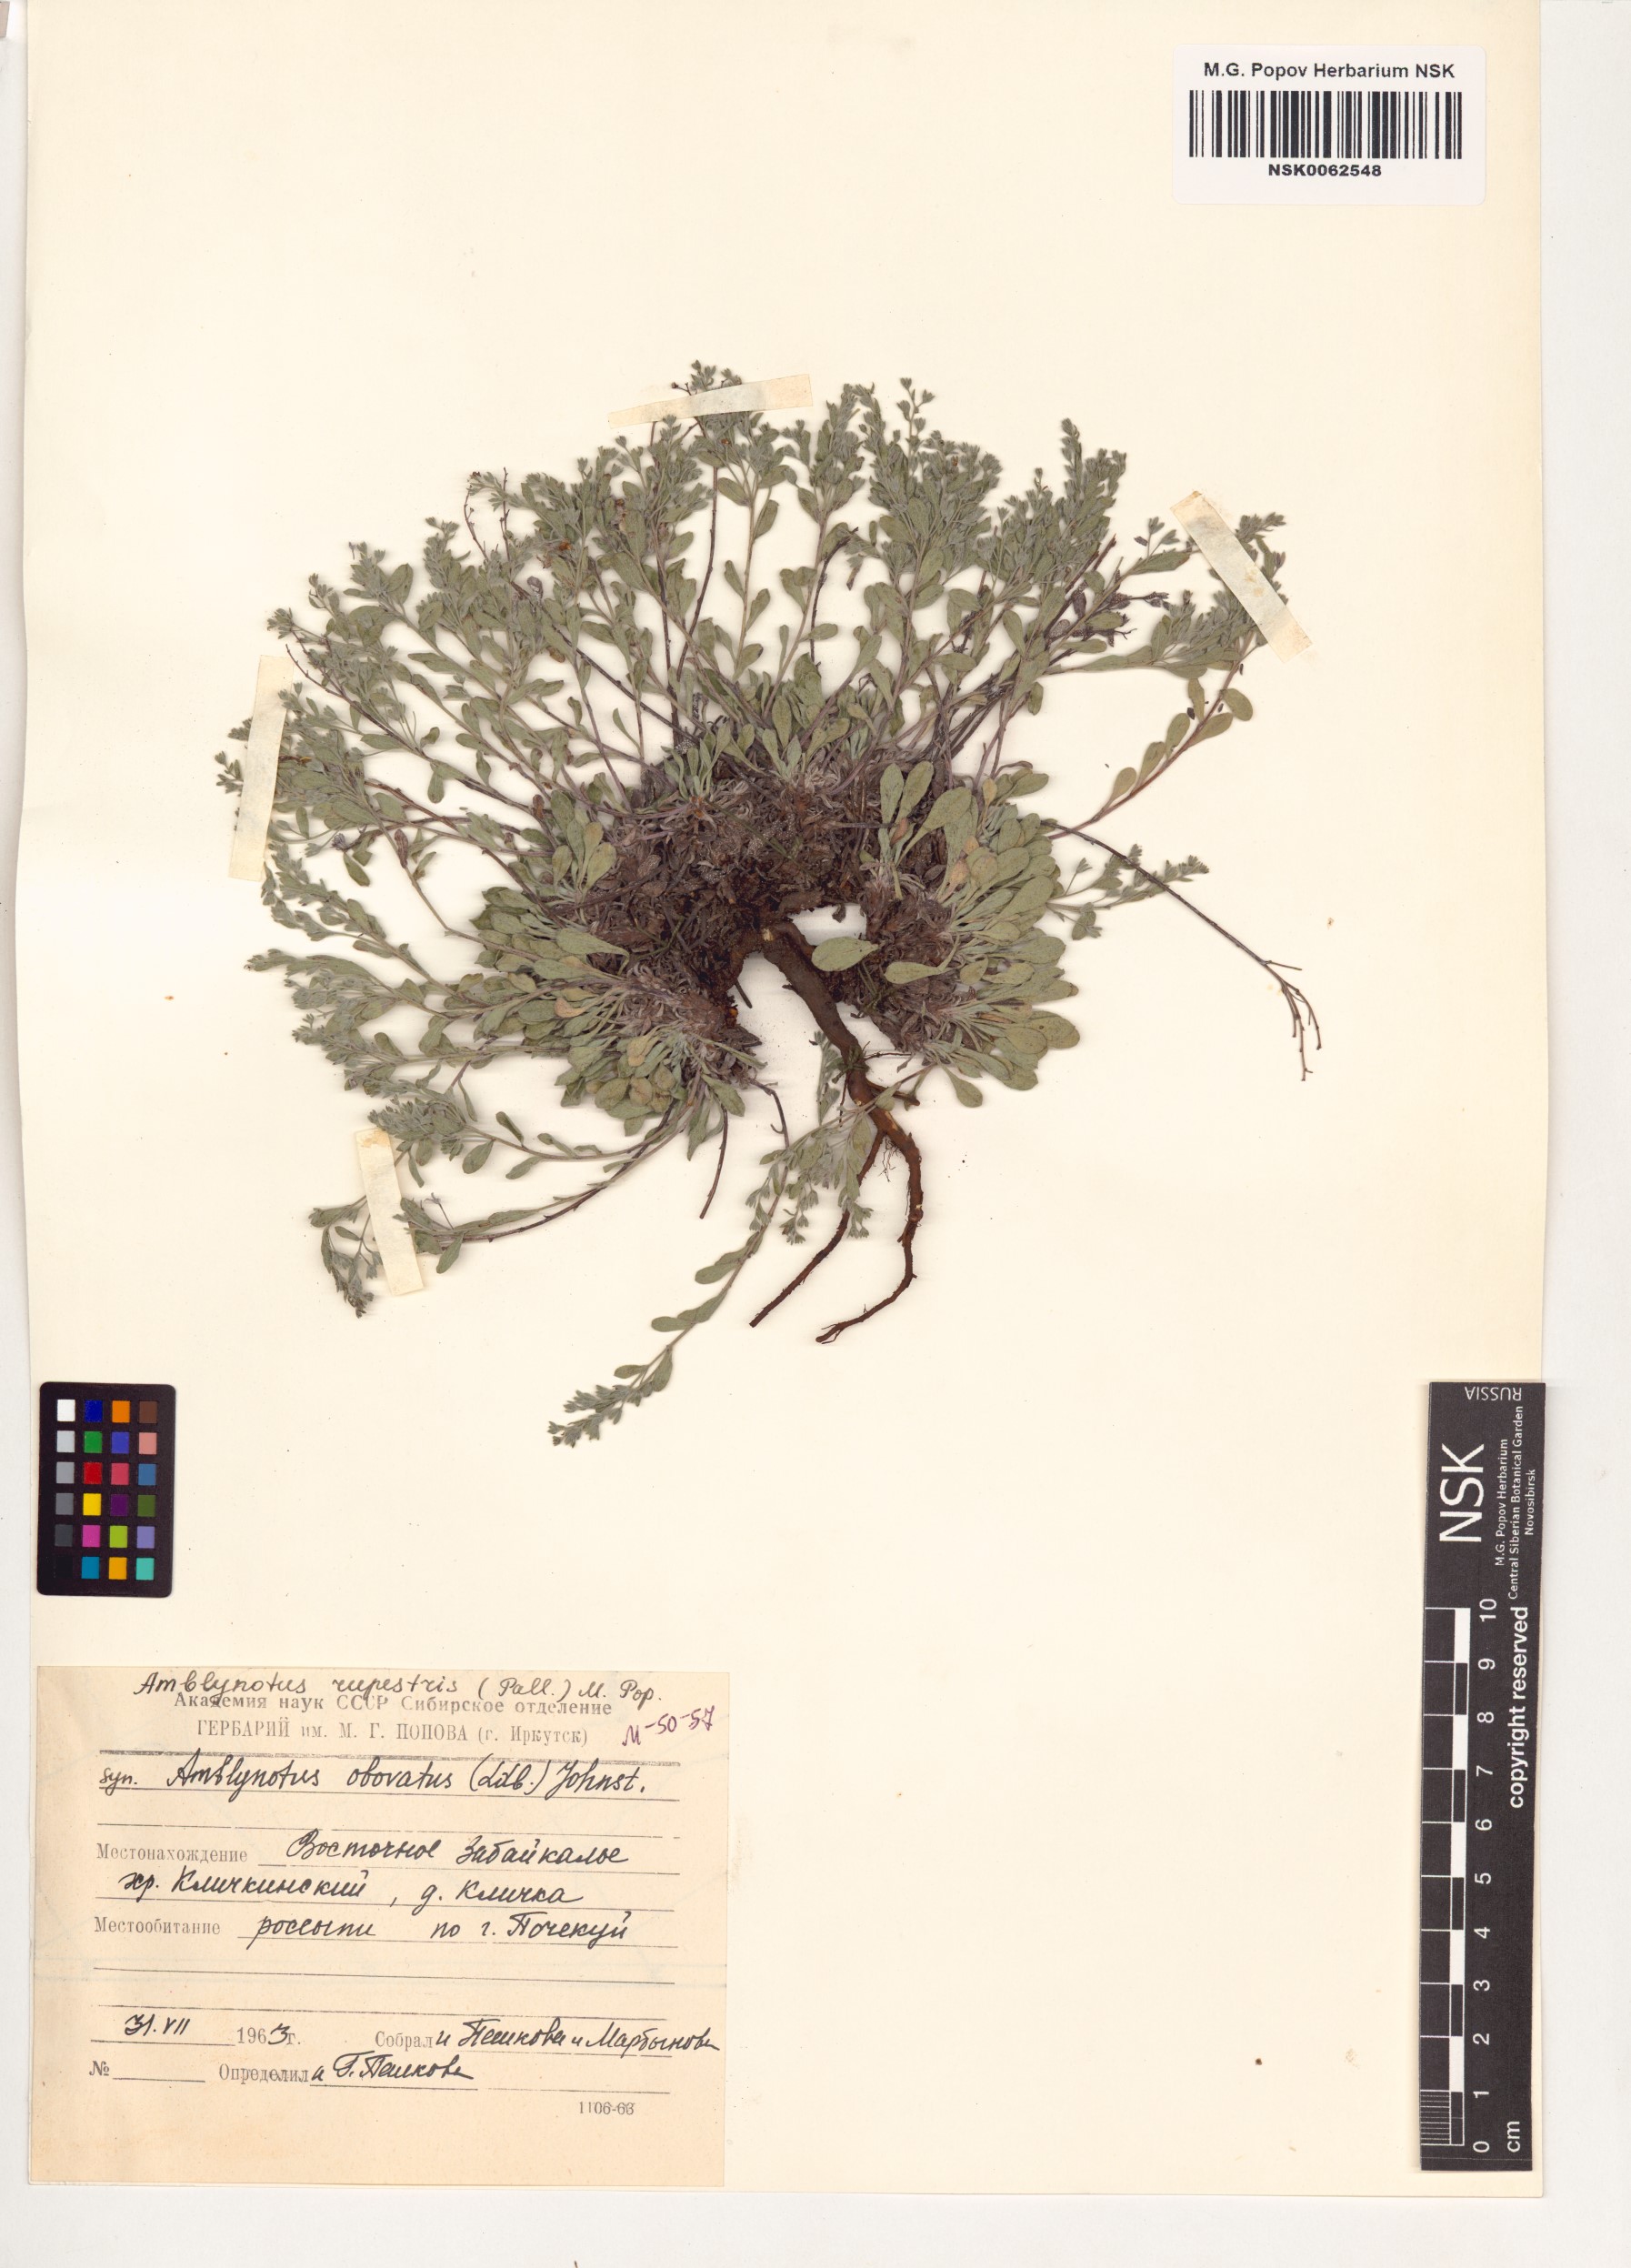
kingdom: Plantae
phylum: Tracheophyta
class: Magnoliopsida
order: Boraginales
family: Boraginaceae
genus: Eritrichium
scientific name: Eritrichium rupestre
